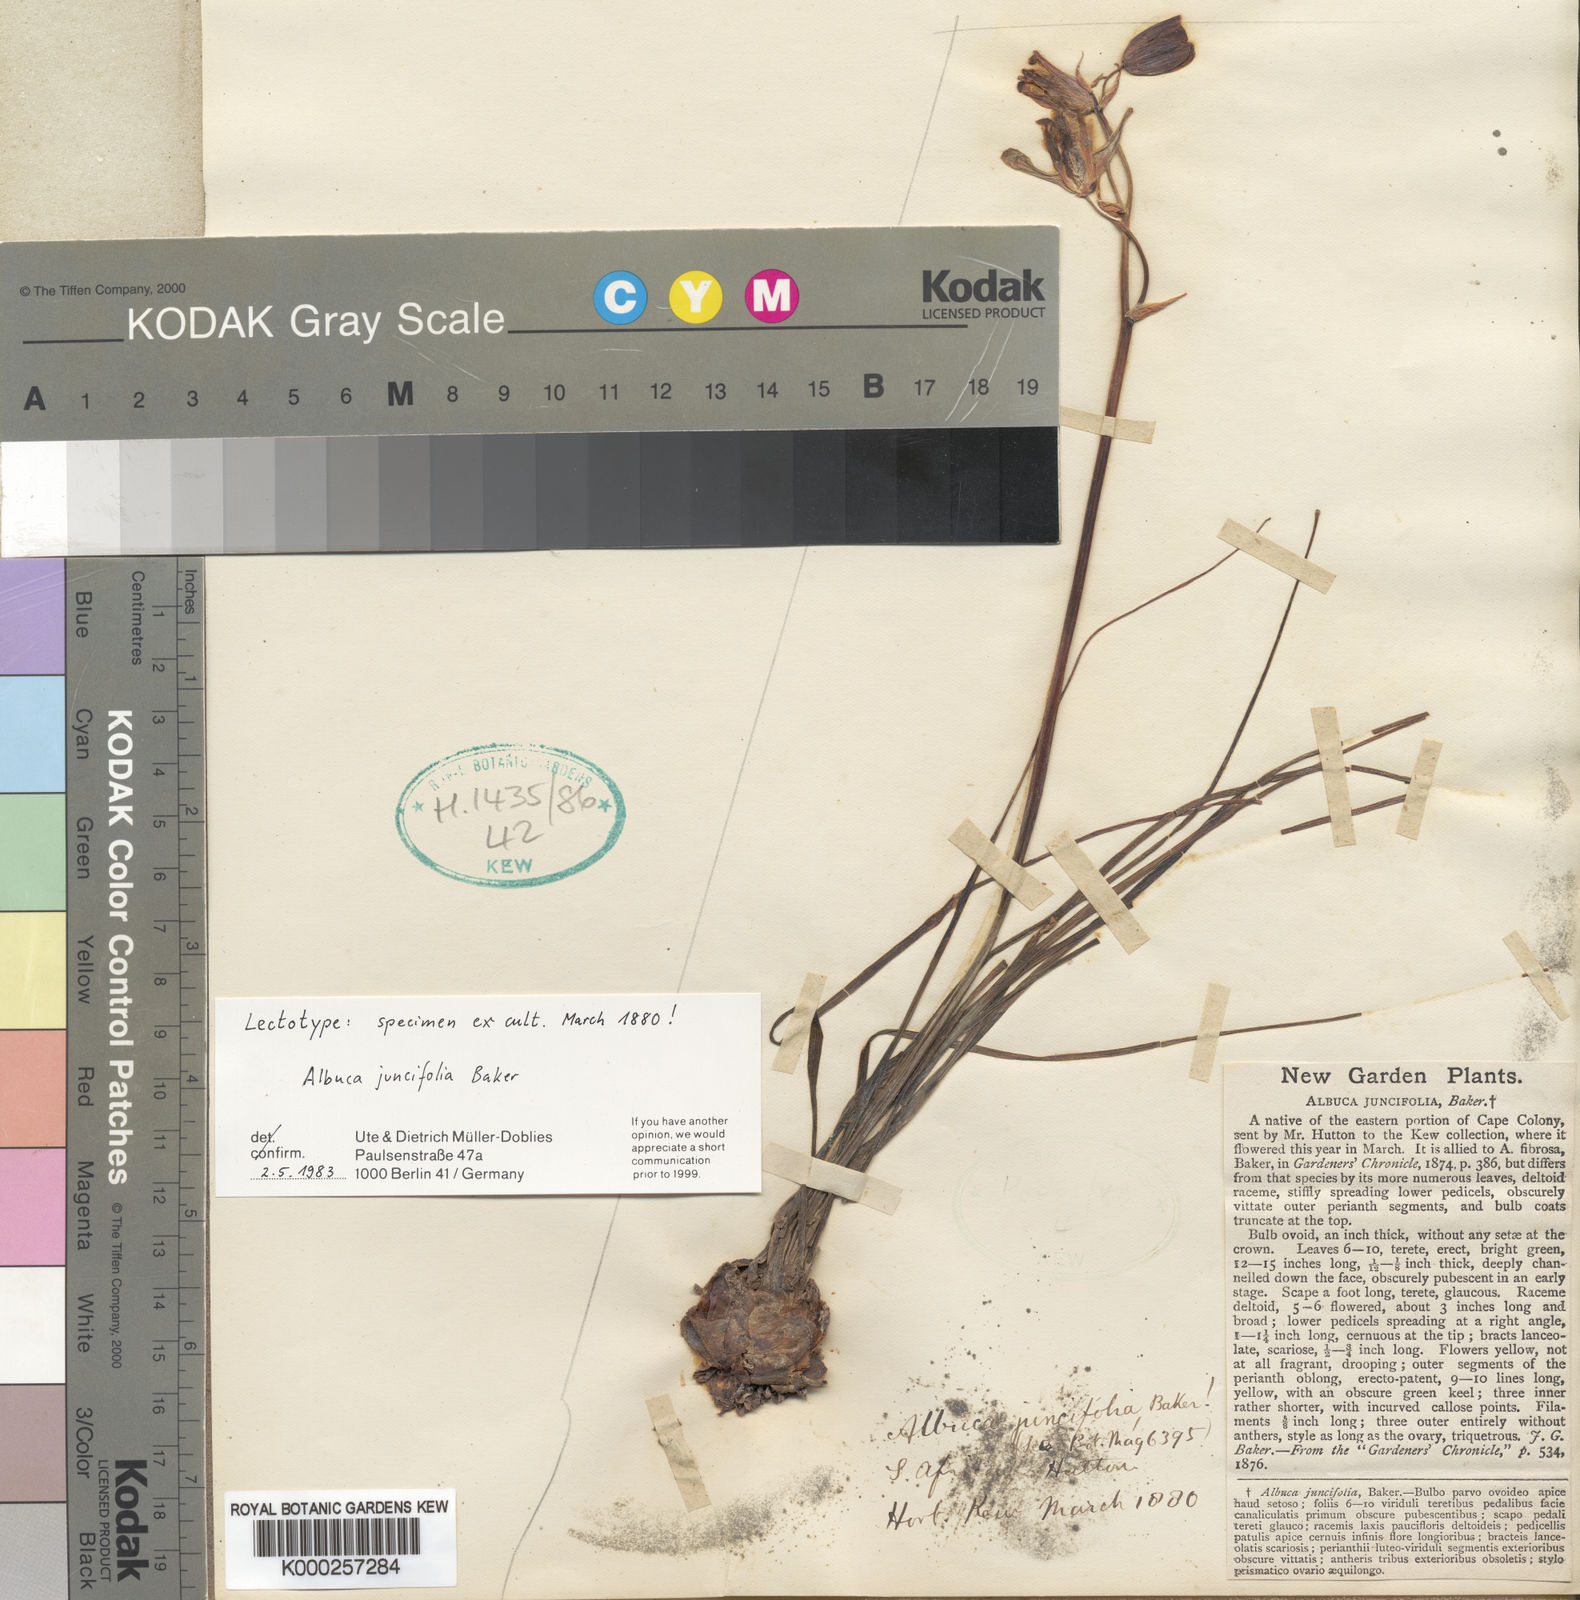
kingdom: Plantae
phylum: Tracheophyta
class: Liliopsida
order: Asparagales
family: Asparagaceae
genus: Albuca
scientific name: Albuca juncifolia
